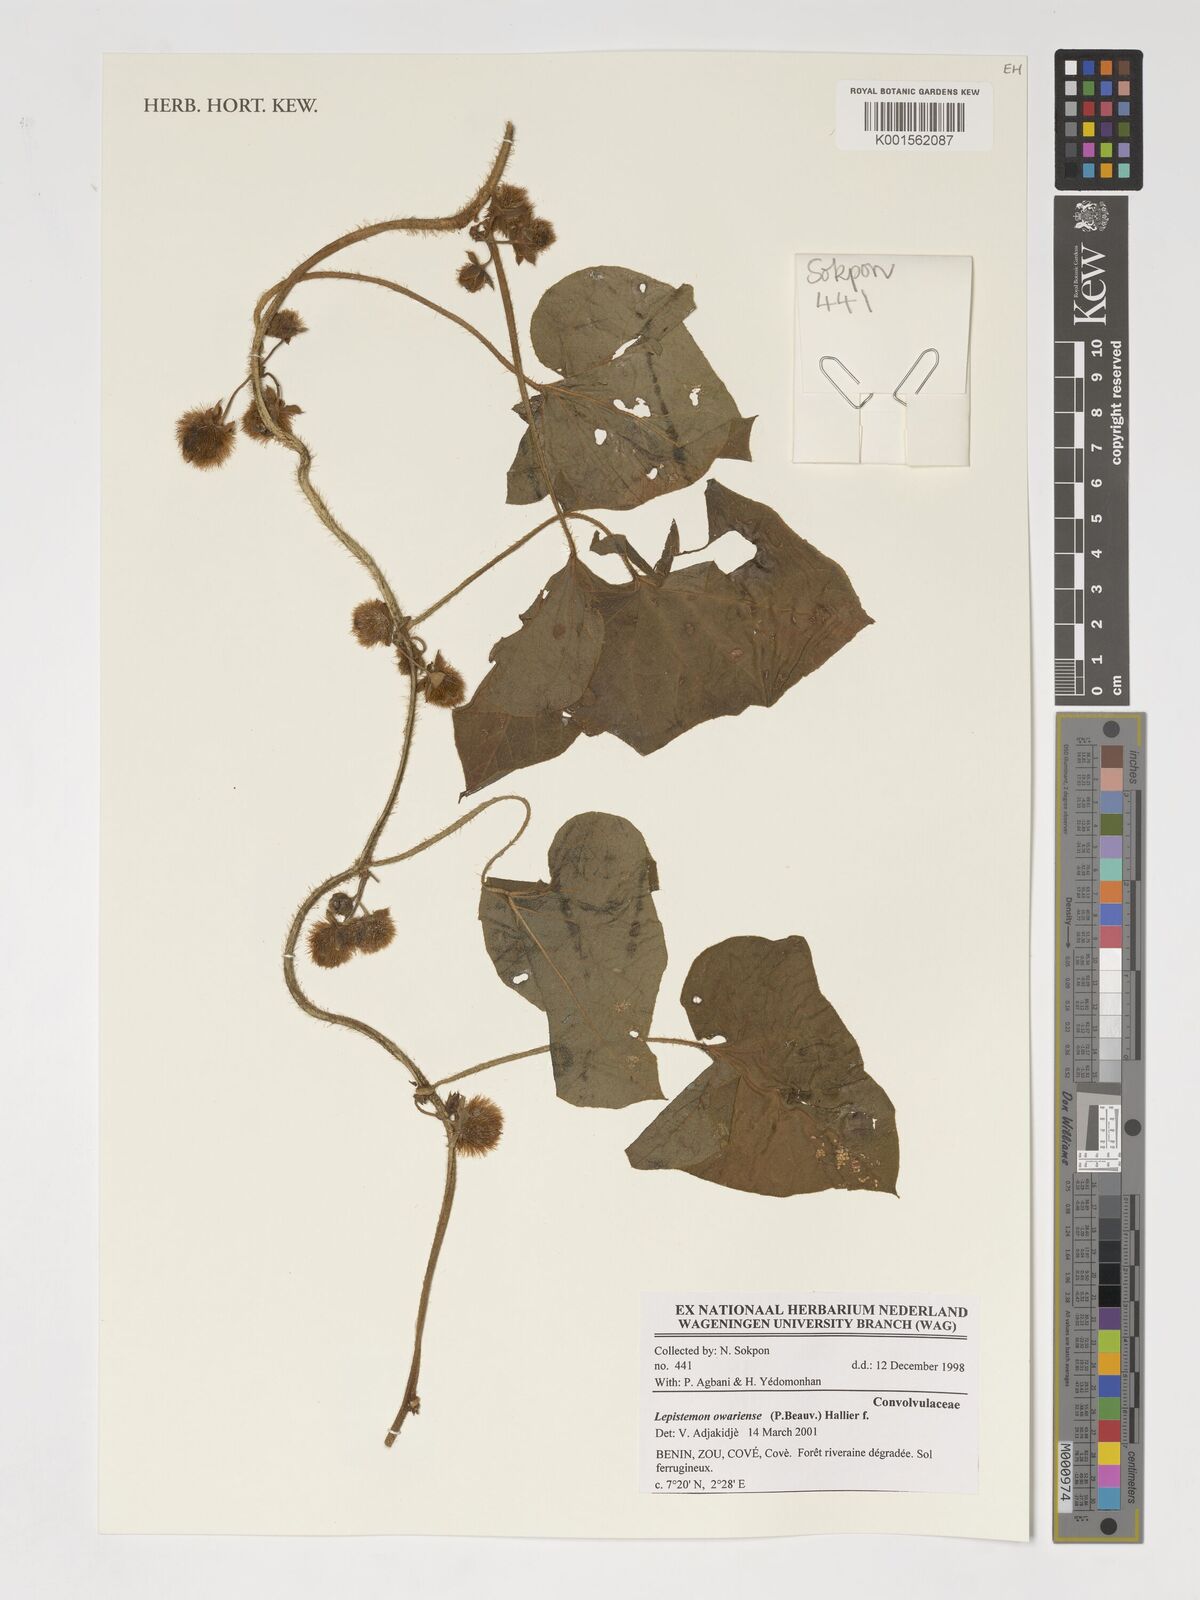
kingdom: Plantae
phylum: Tracheophyta
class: Magnoliopsida
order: Solanales
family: Convolvulaceae
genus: Lepistemon
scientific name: Lepistemon owariensis
